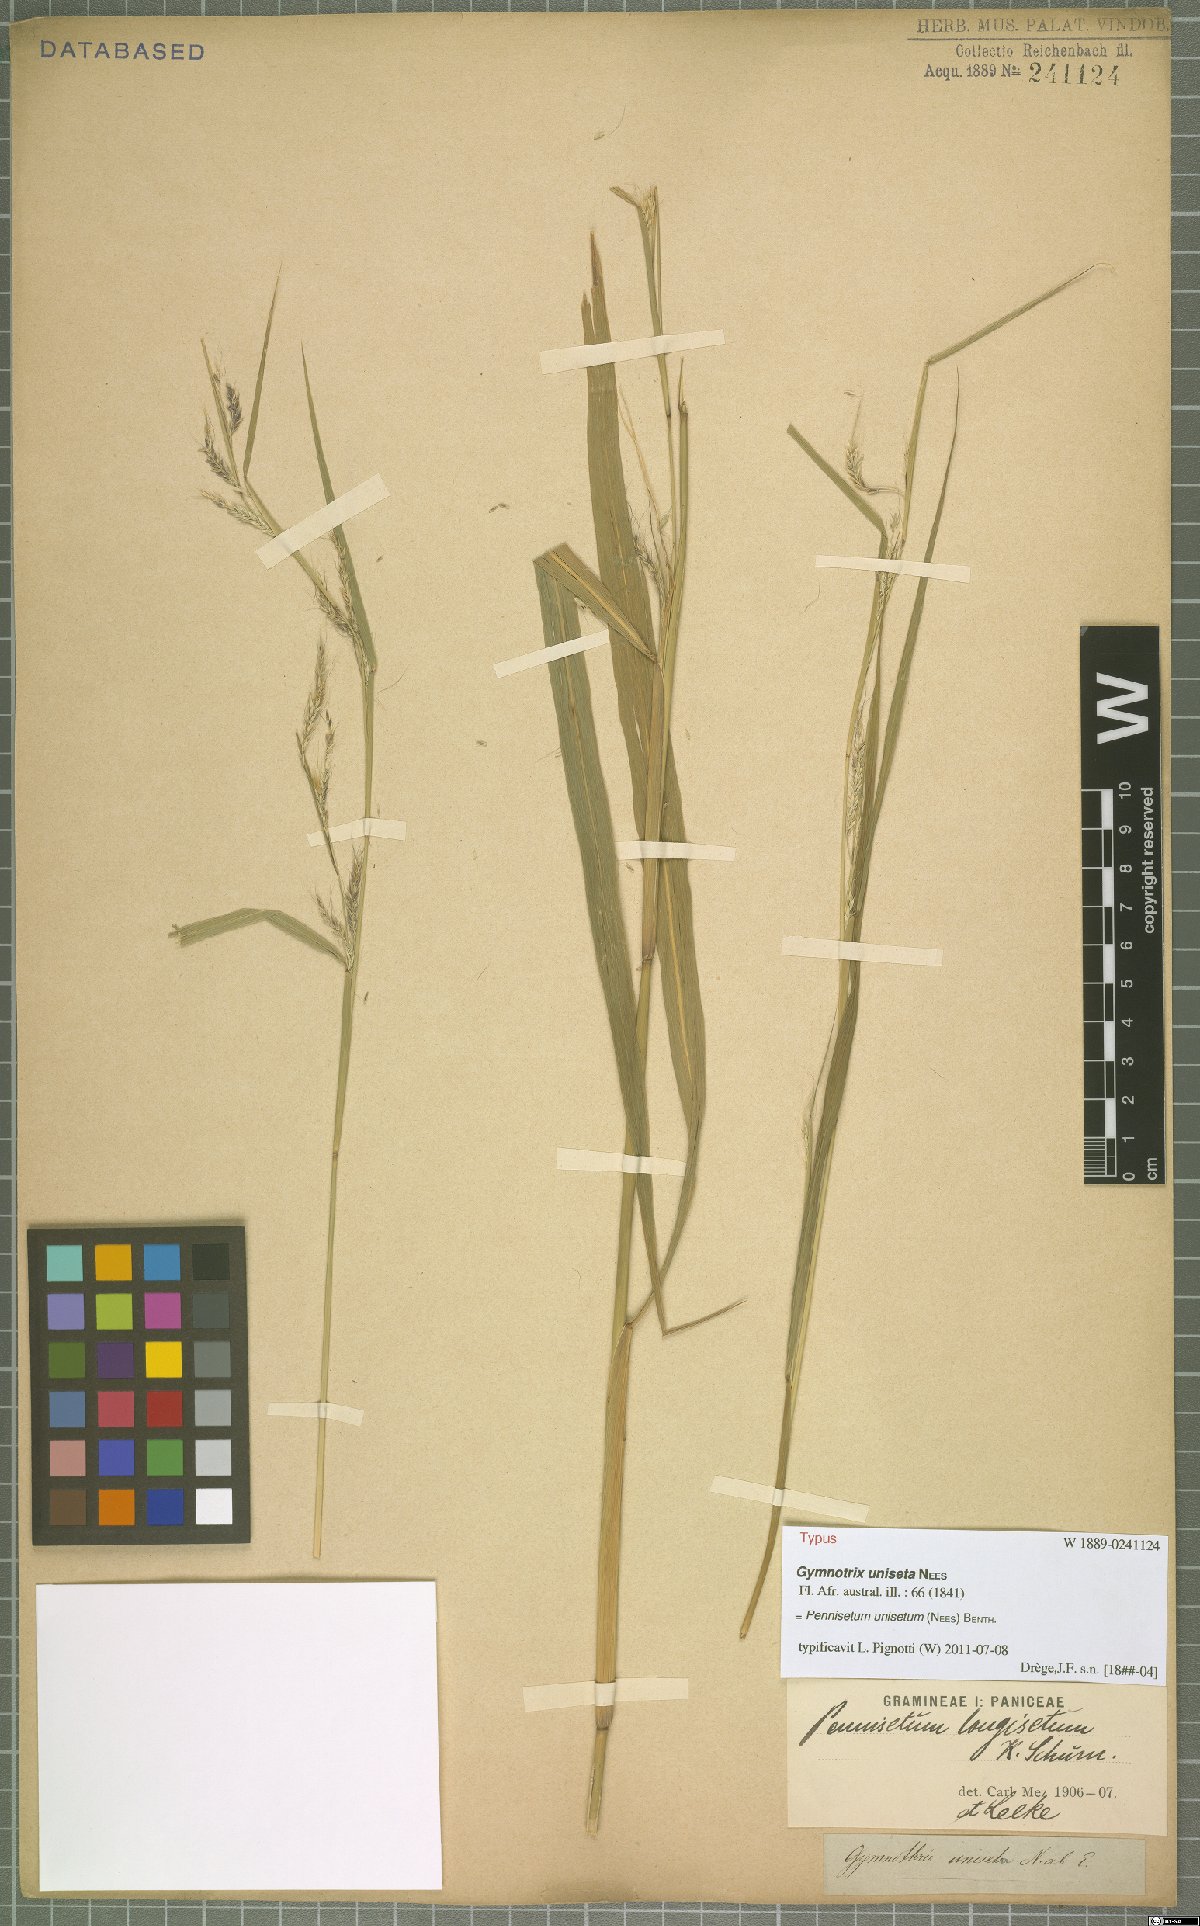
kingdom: Plantae
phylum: Tracheophyta
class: Liliopsida
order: Poales
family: Poaceae
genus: Cenchrus
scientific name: Cenchrus unisetus
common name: Natal grass
